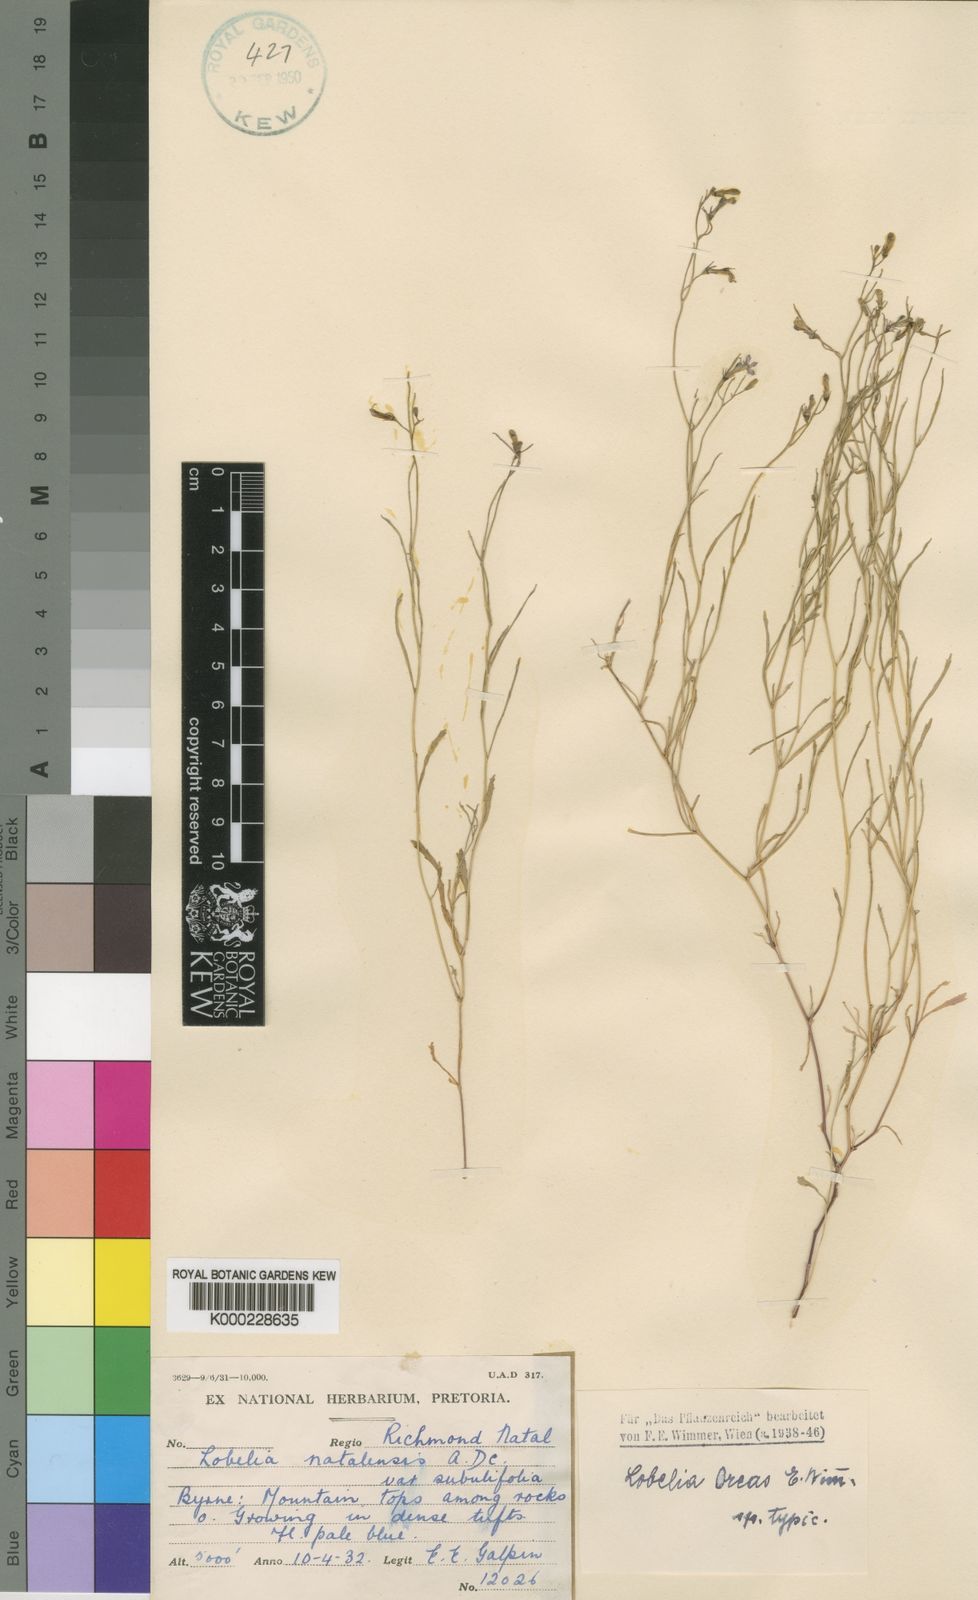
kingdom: Plantae
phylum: Tracheophyta
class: Magnoliopsida
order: Asterales
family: Campanulaceae
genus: Lobelia
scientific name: Lobelia oreas
